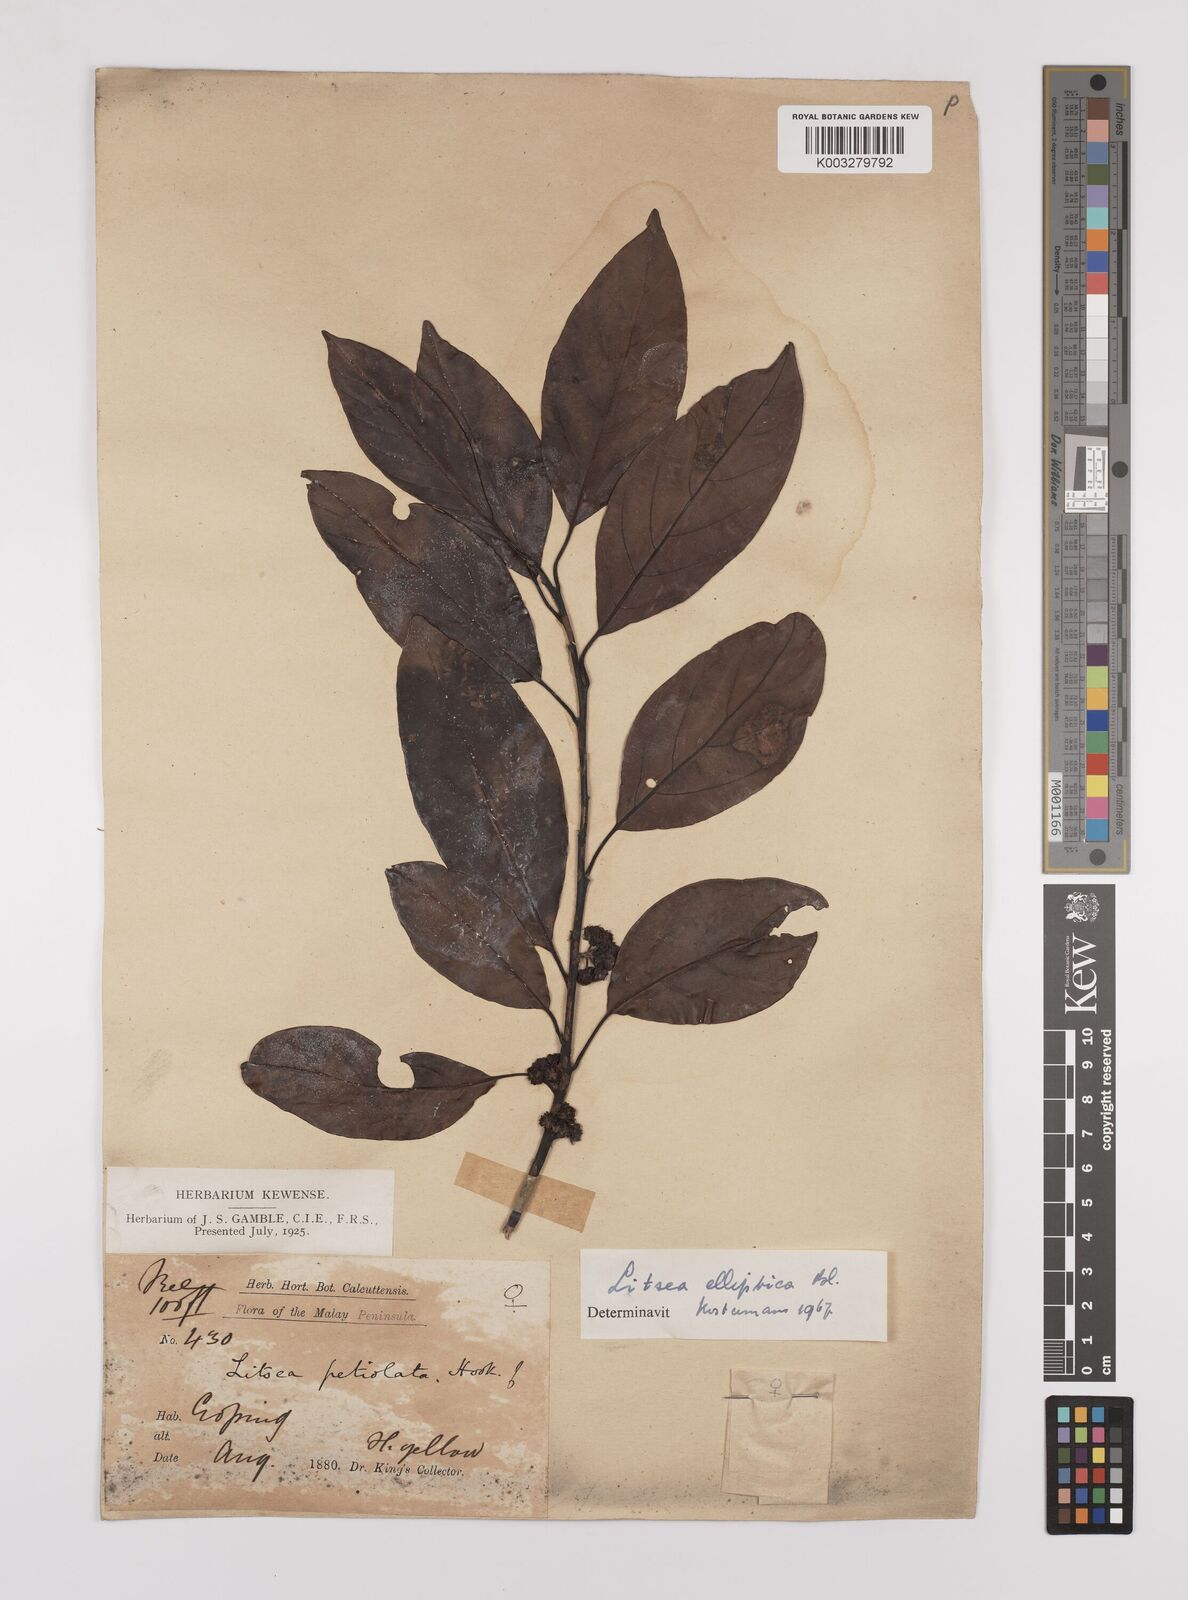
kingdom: Plantae
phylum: Tracheophyta
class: Magnoliopsida
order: Laurales
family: Lauraceae
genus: Litsea
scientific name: Litsea elliptica
